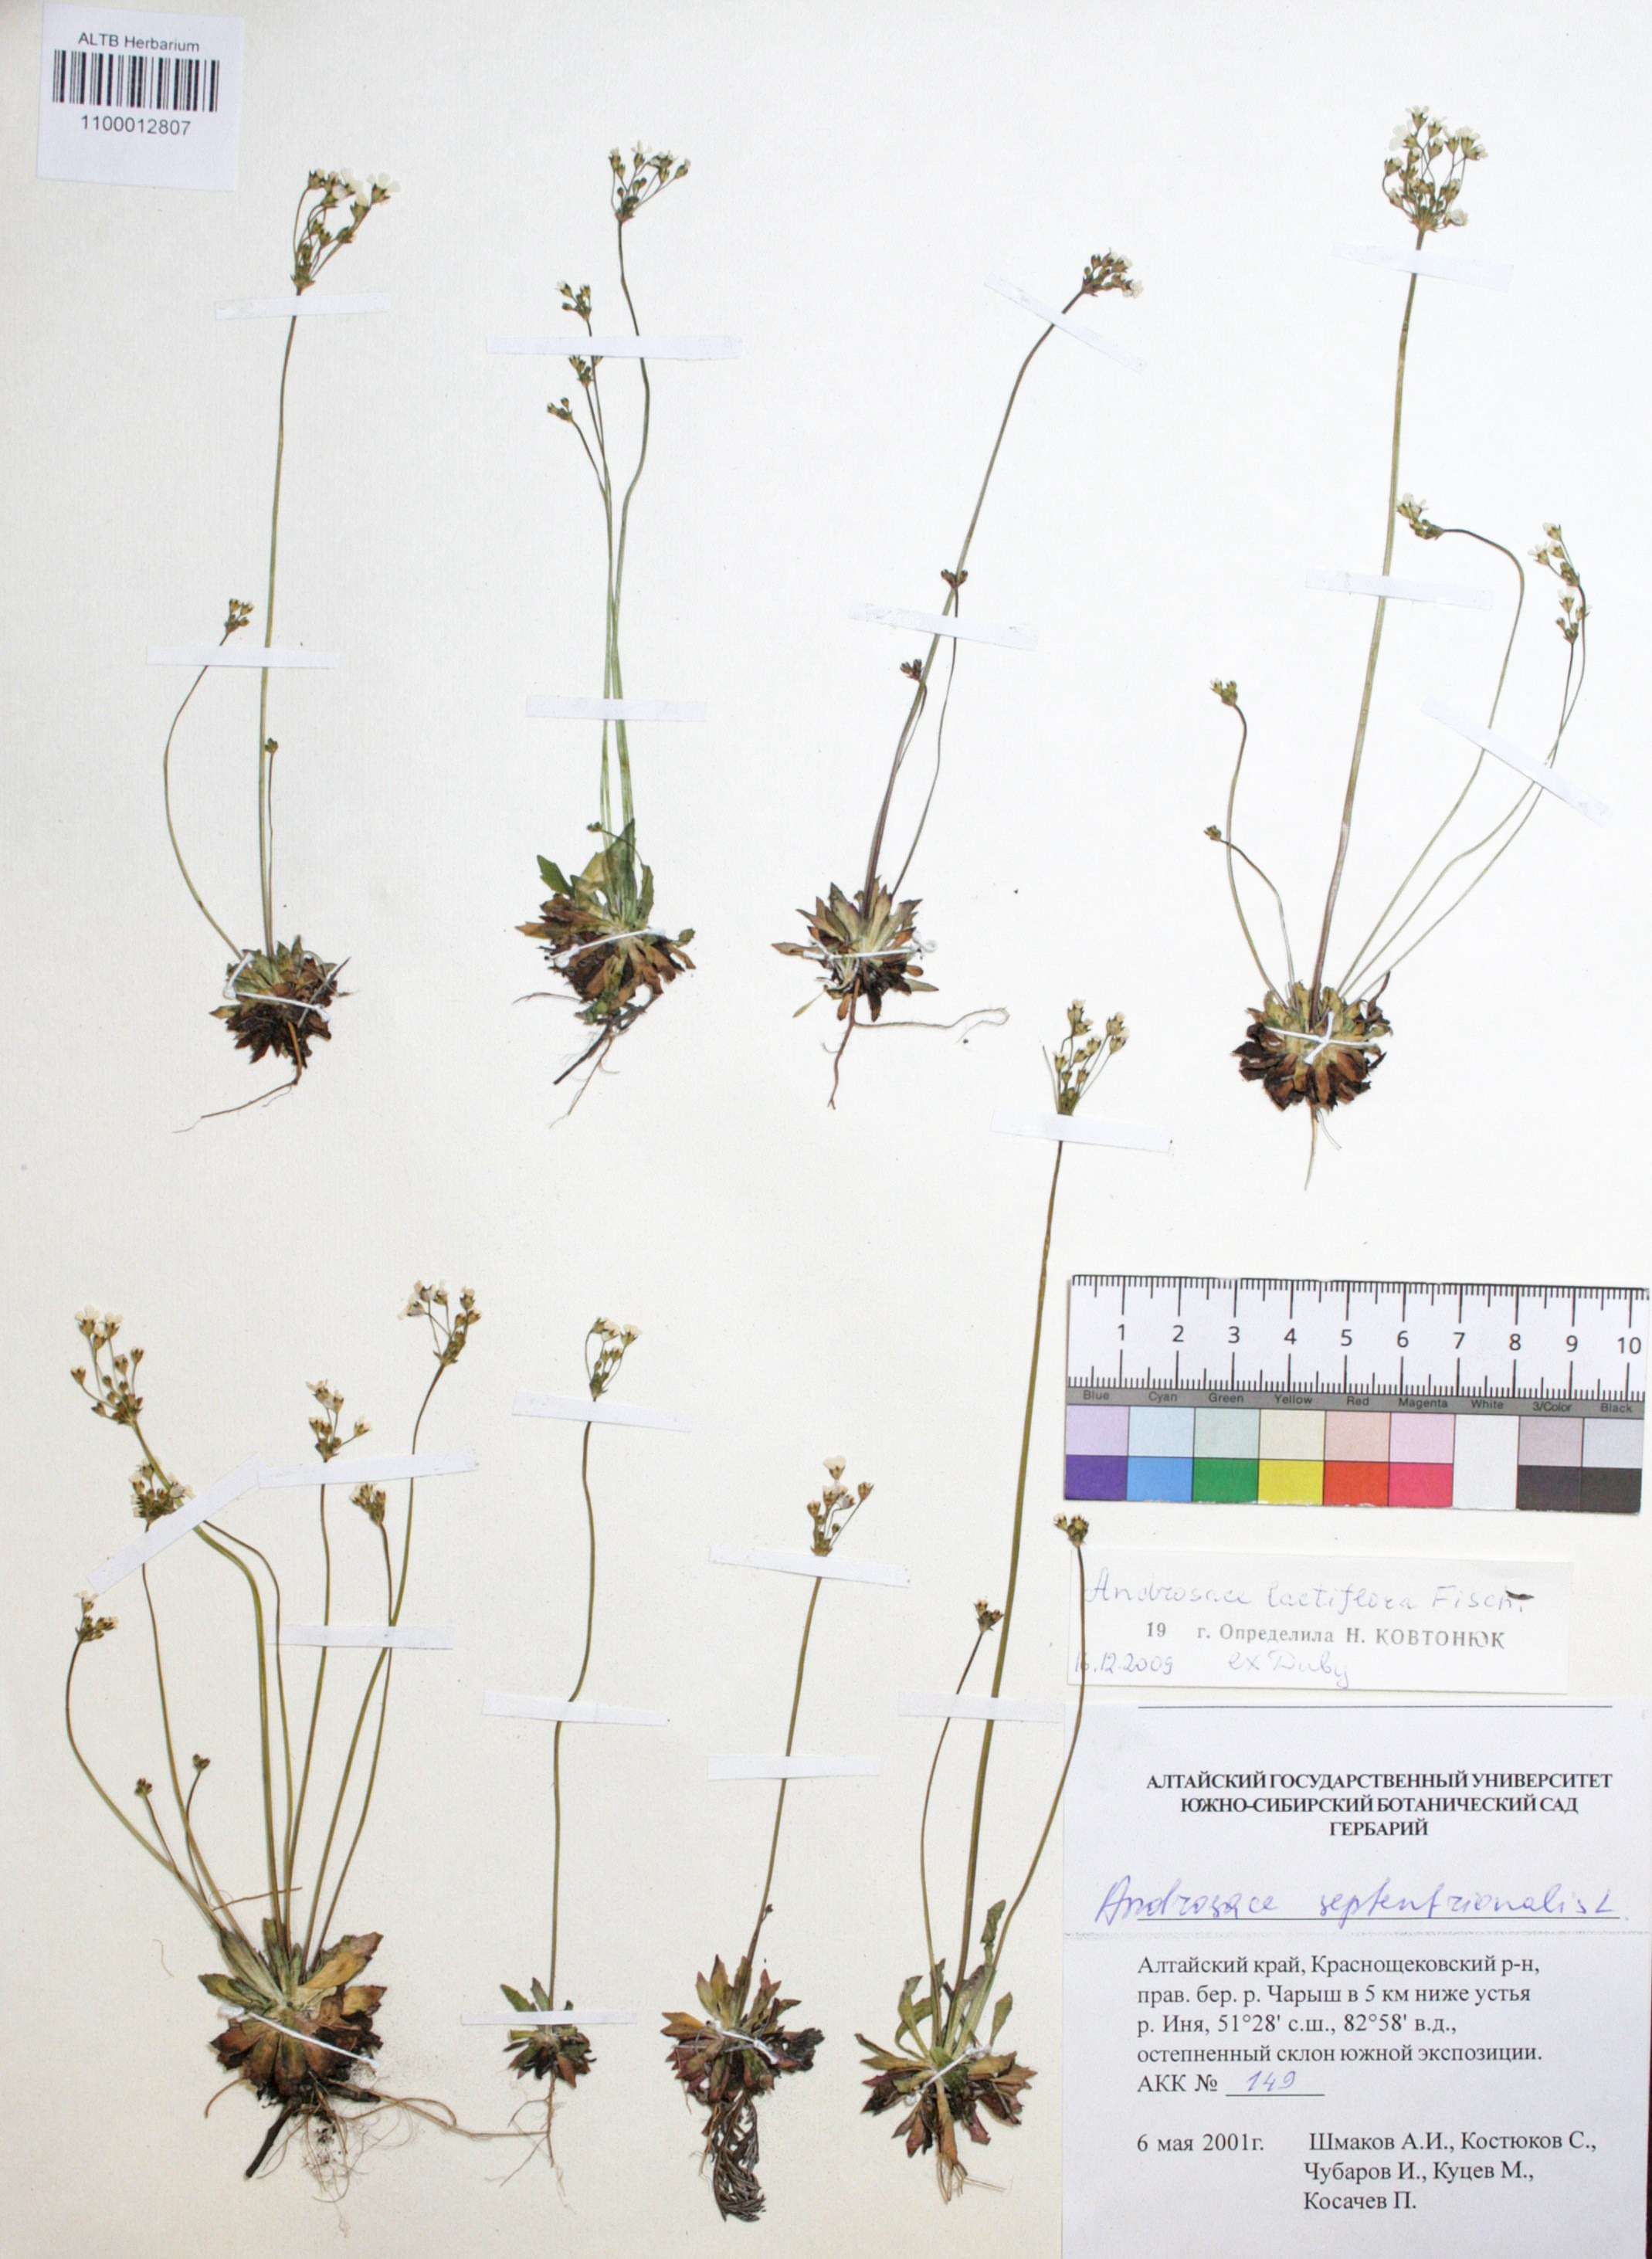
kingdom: Plantae
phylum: Tracheophyta
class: Magnoliopsida
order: Ericales
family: Primulaceae
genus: Androsace
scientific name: Androsace lactiflora
